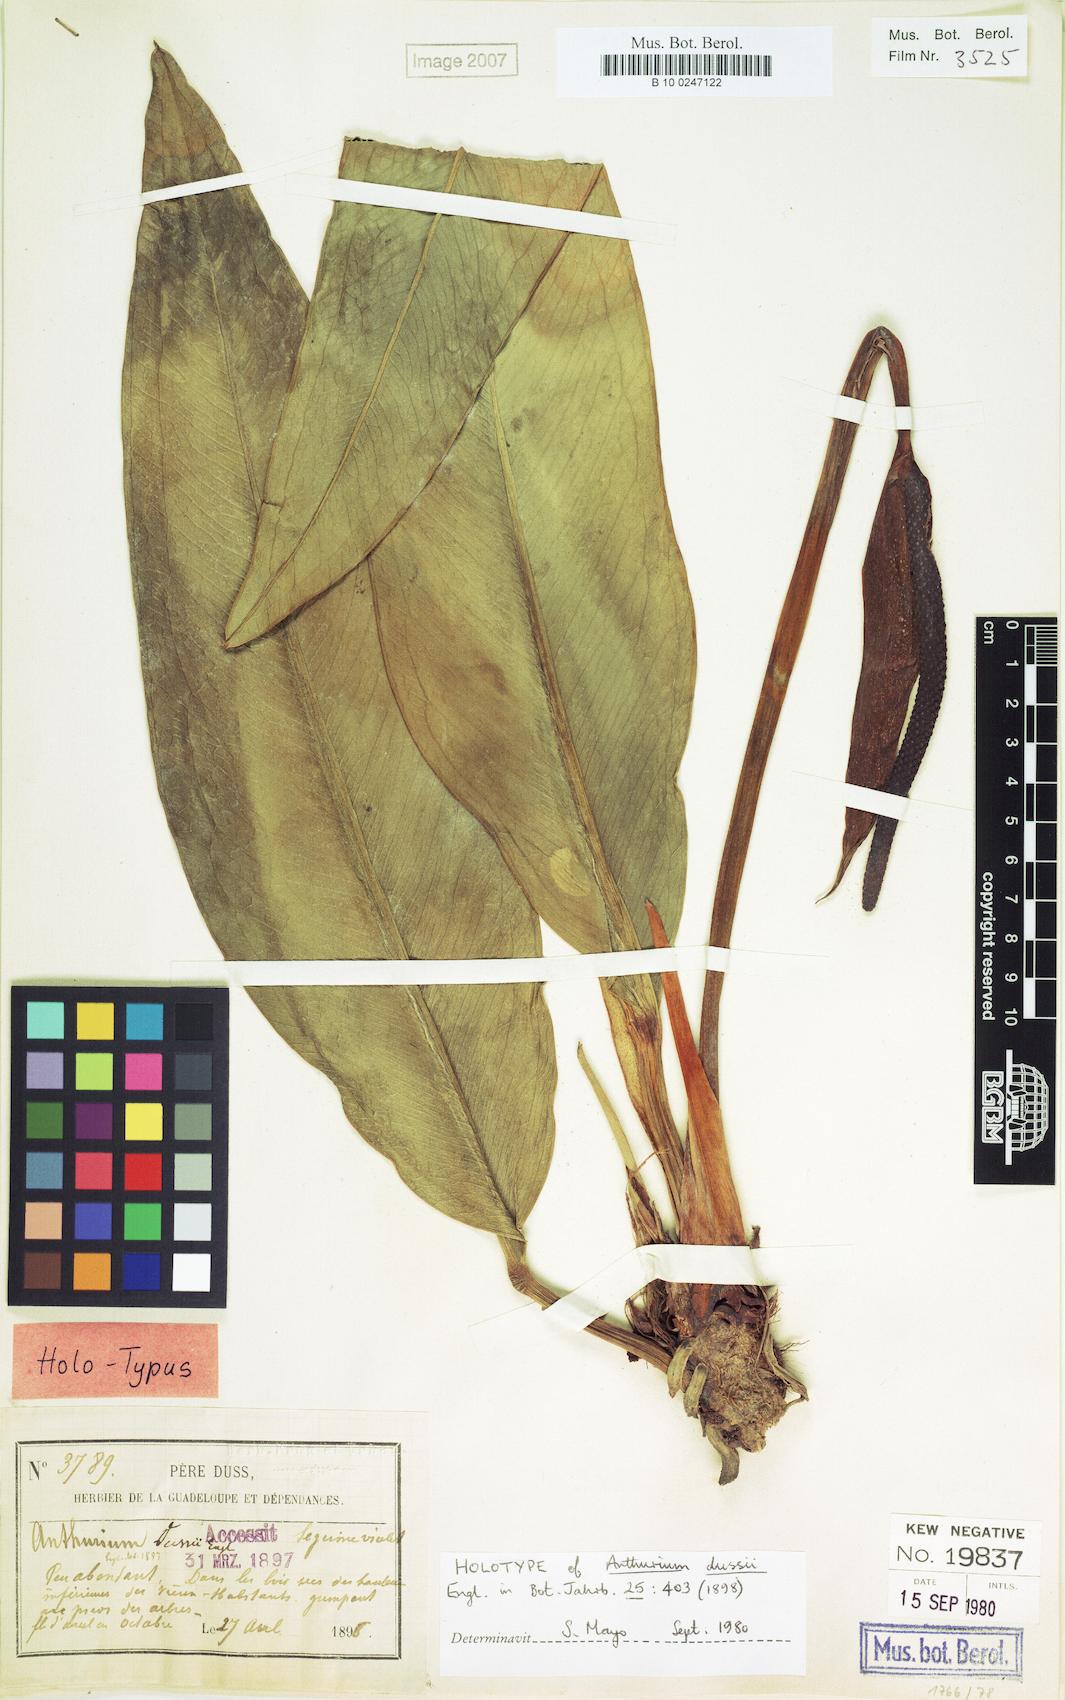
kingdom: Plantae
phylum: Tracheophyta
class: Liliopsida
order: Alismatales
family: Araceae
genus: Anthurium
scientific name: Anthurium dussii
